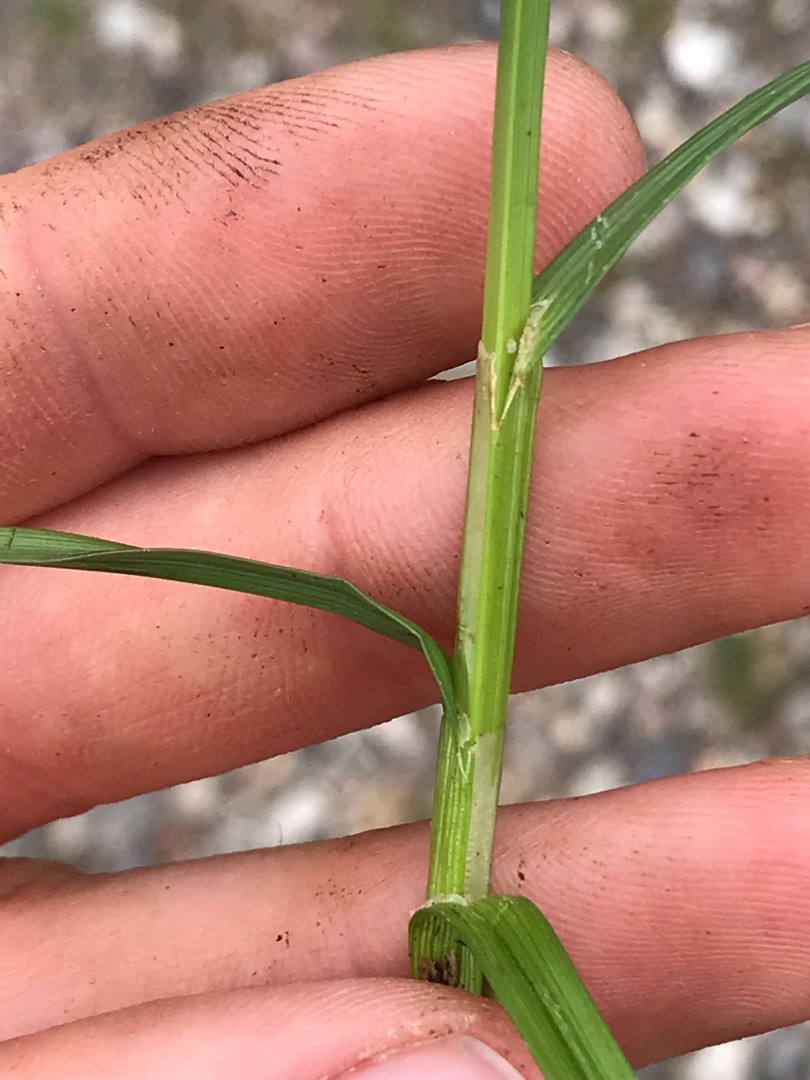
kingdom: Plantae
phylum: Tracheophyta
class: Liliopsida
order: Poales
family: Cyperaceae
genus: Carex
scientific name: Carex otrubae
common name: Sylt-star
